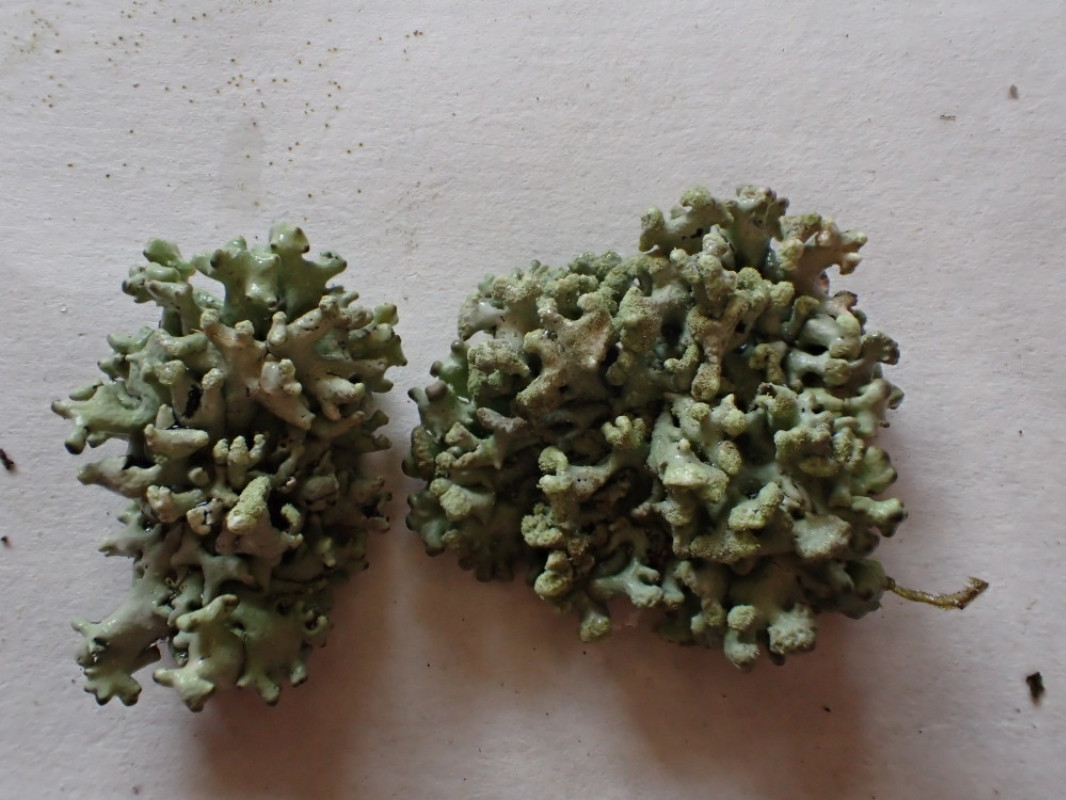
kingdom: Fungi
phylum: Ascomycota
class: Lecanoromycetes
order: Lecanorales
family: Parmeliaceae
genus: Hypogymnia
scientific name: Hypogymnia tubulosa
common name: finger-kvistlav
